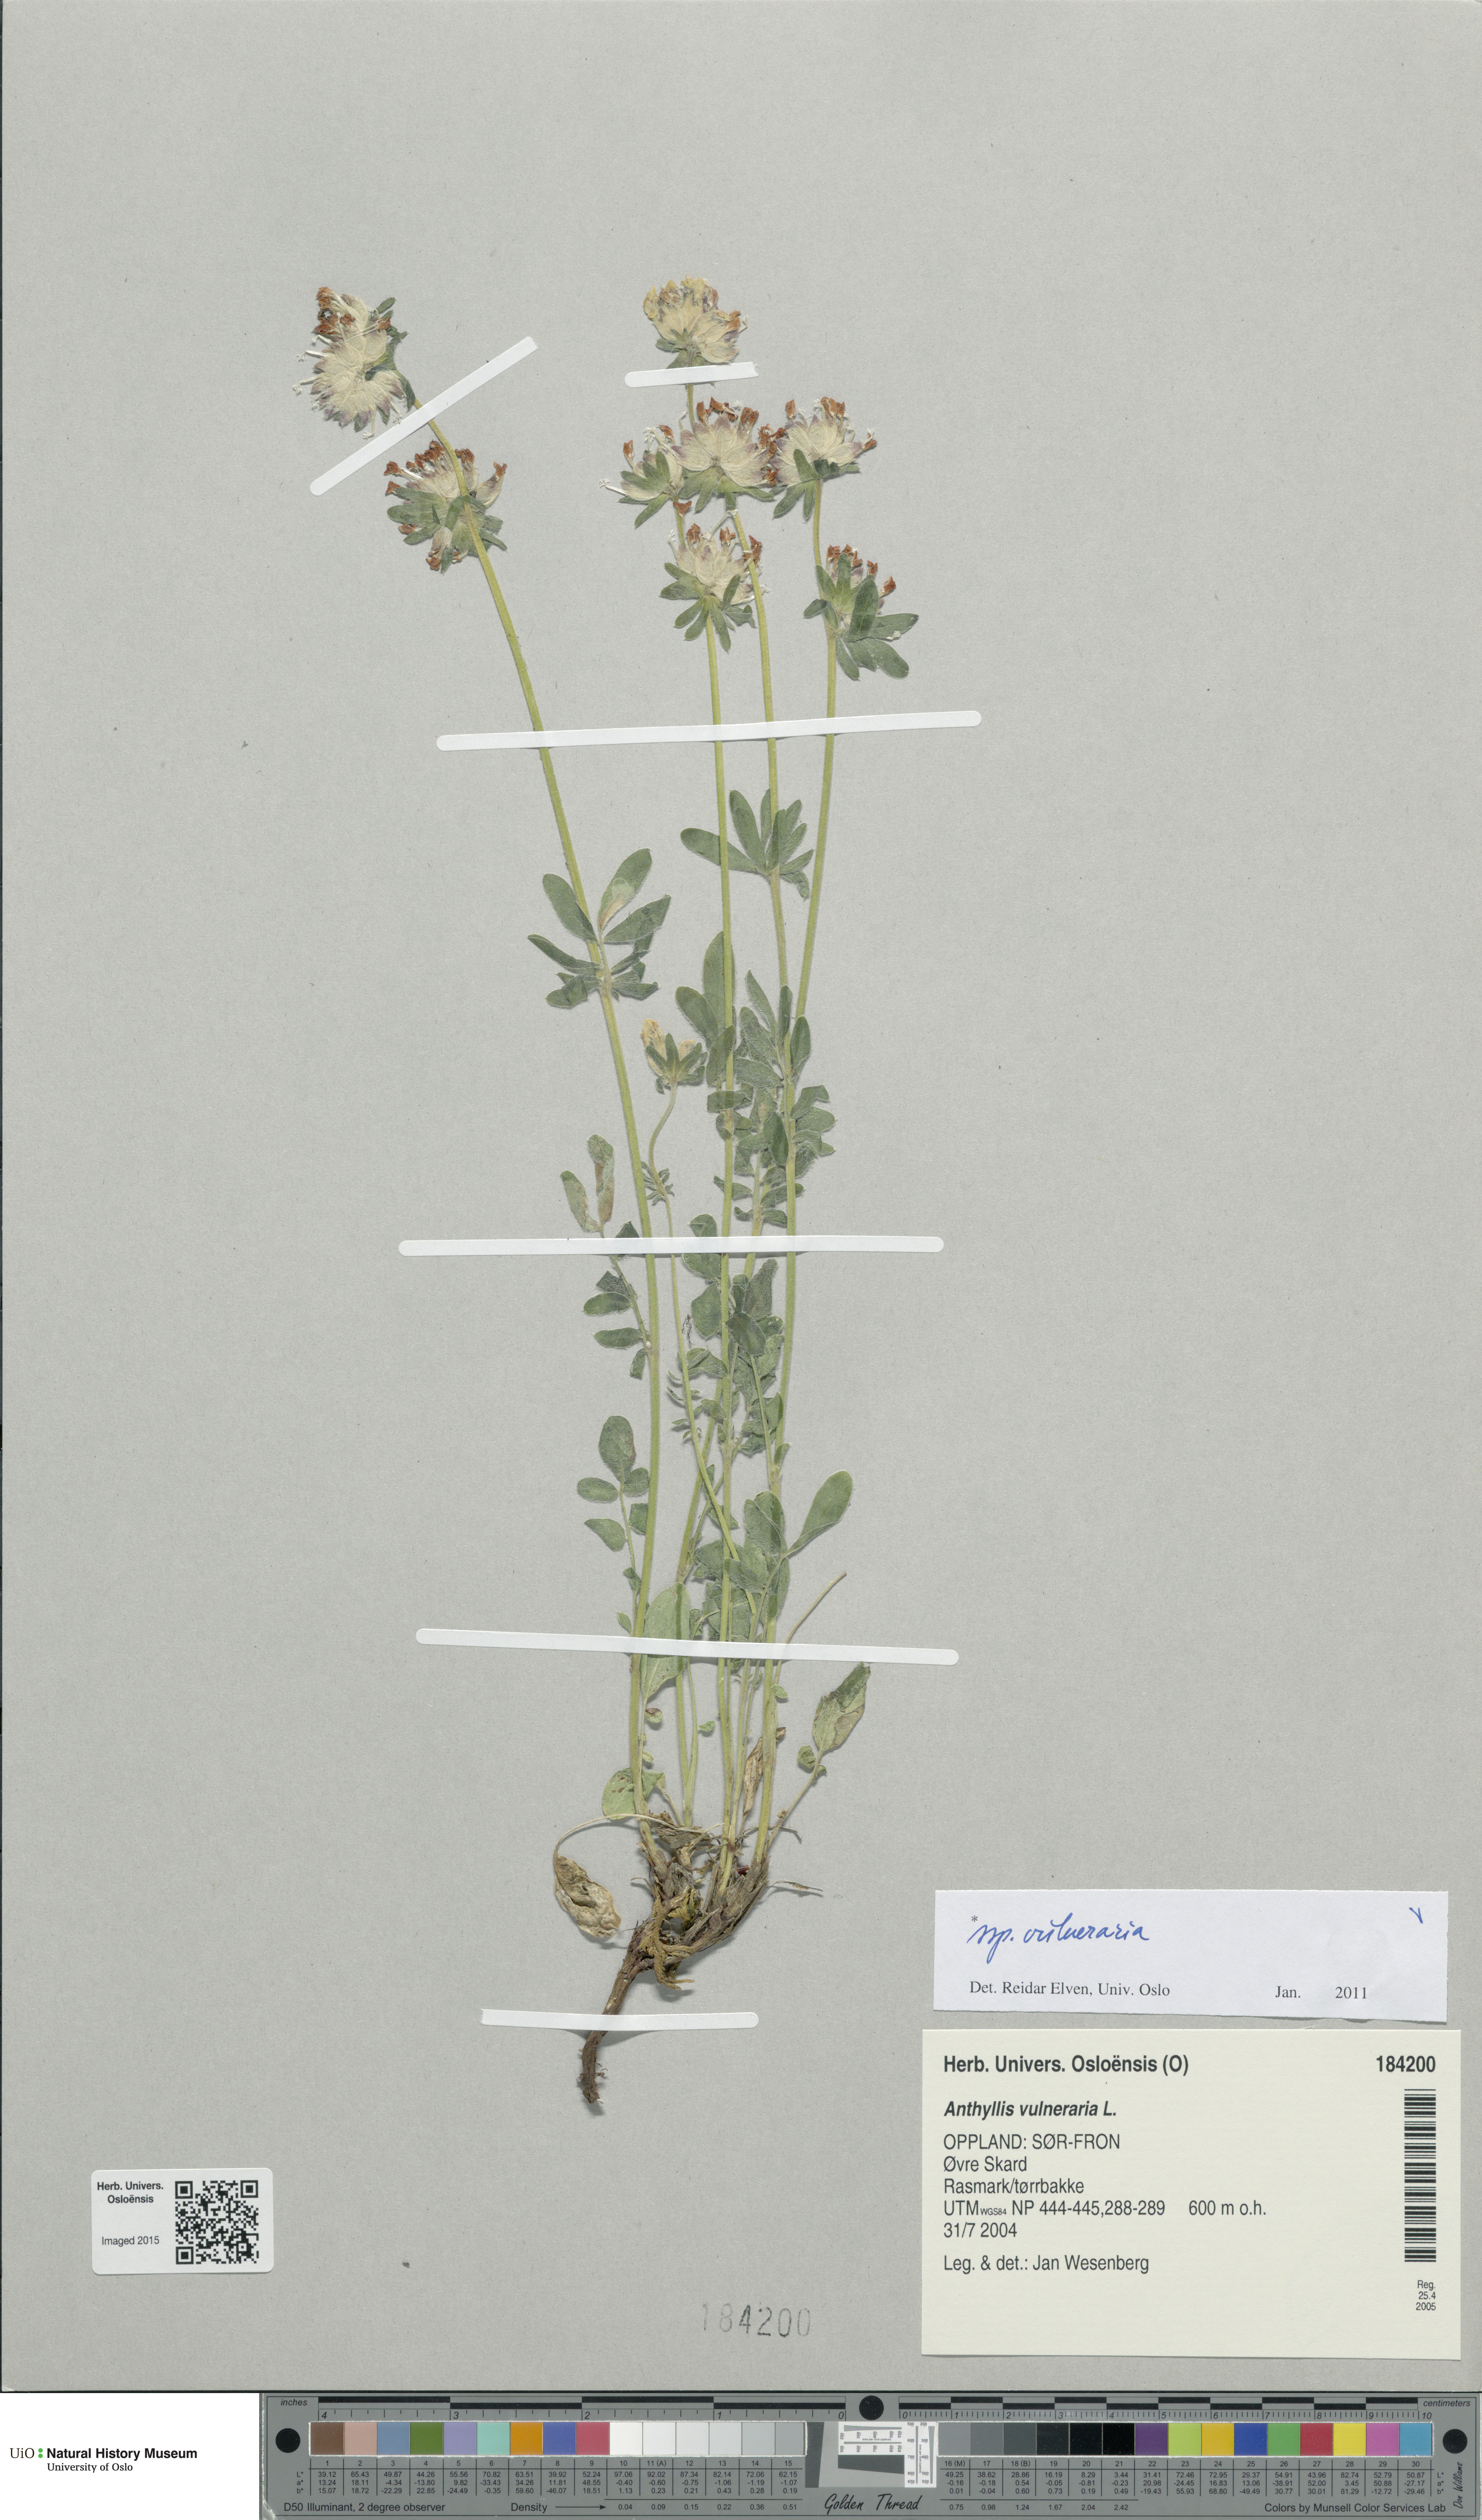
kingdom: Plantae
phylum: Tracheophyta
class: Magnoliopsida
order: Fabales
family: Fabaceae
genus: Anthyllis
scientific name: Anthyllis vulneraria
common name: Kidney vetch
